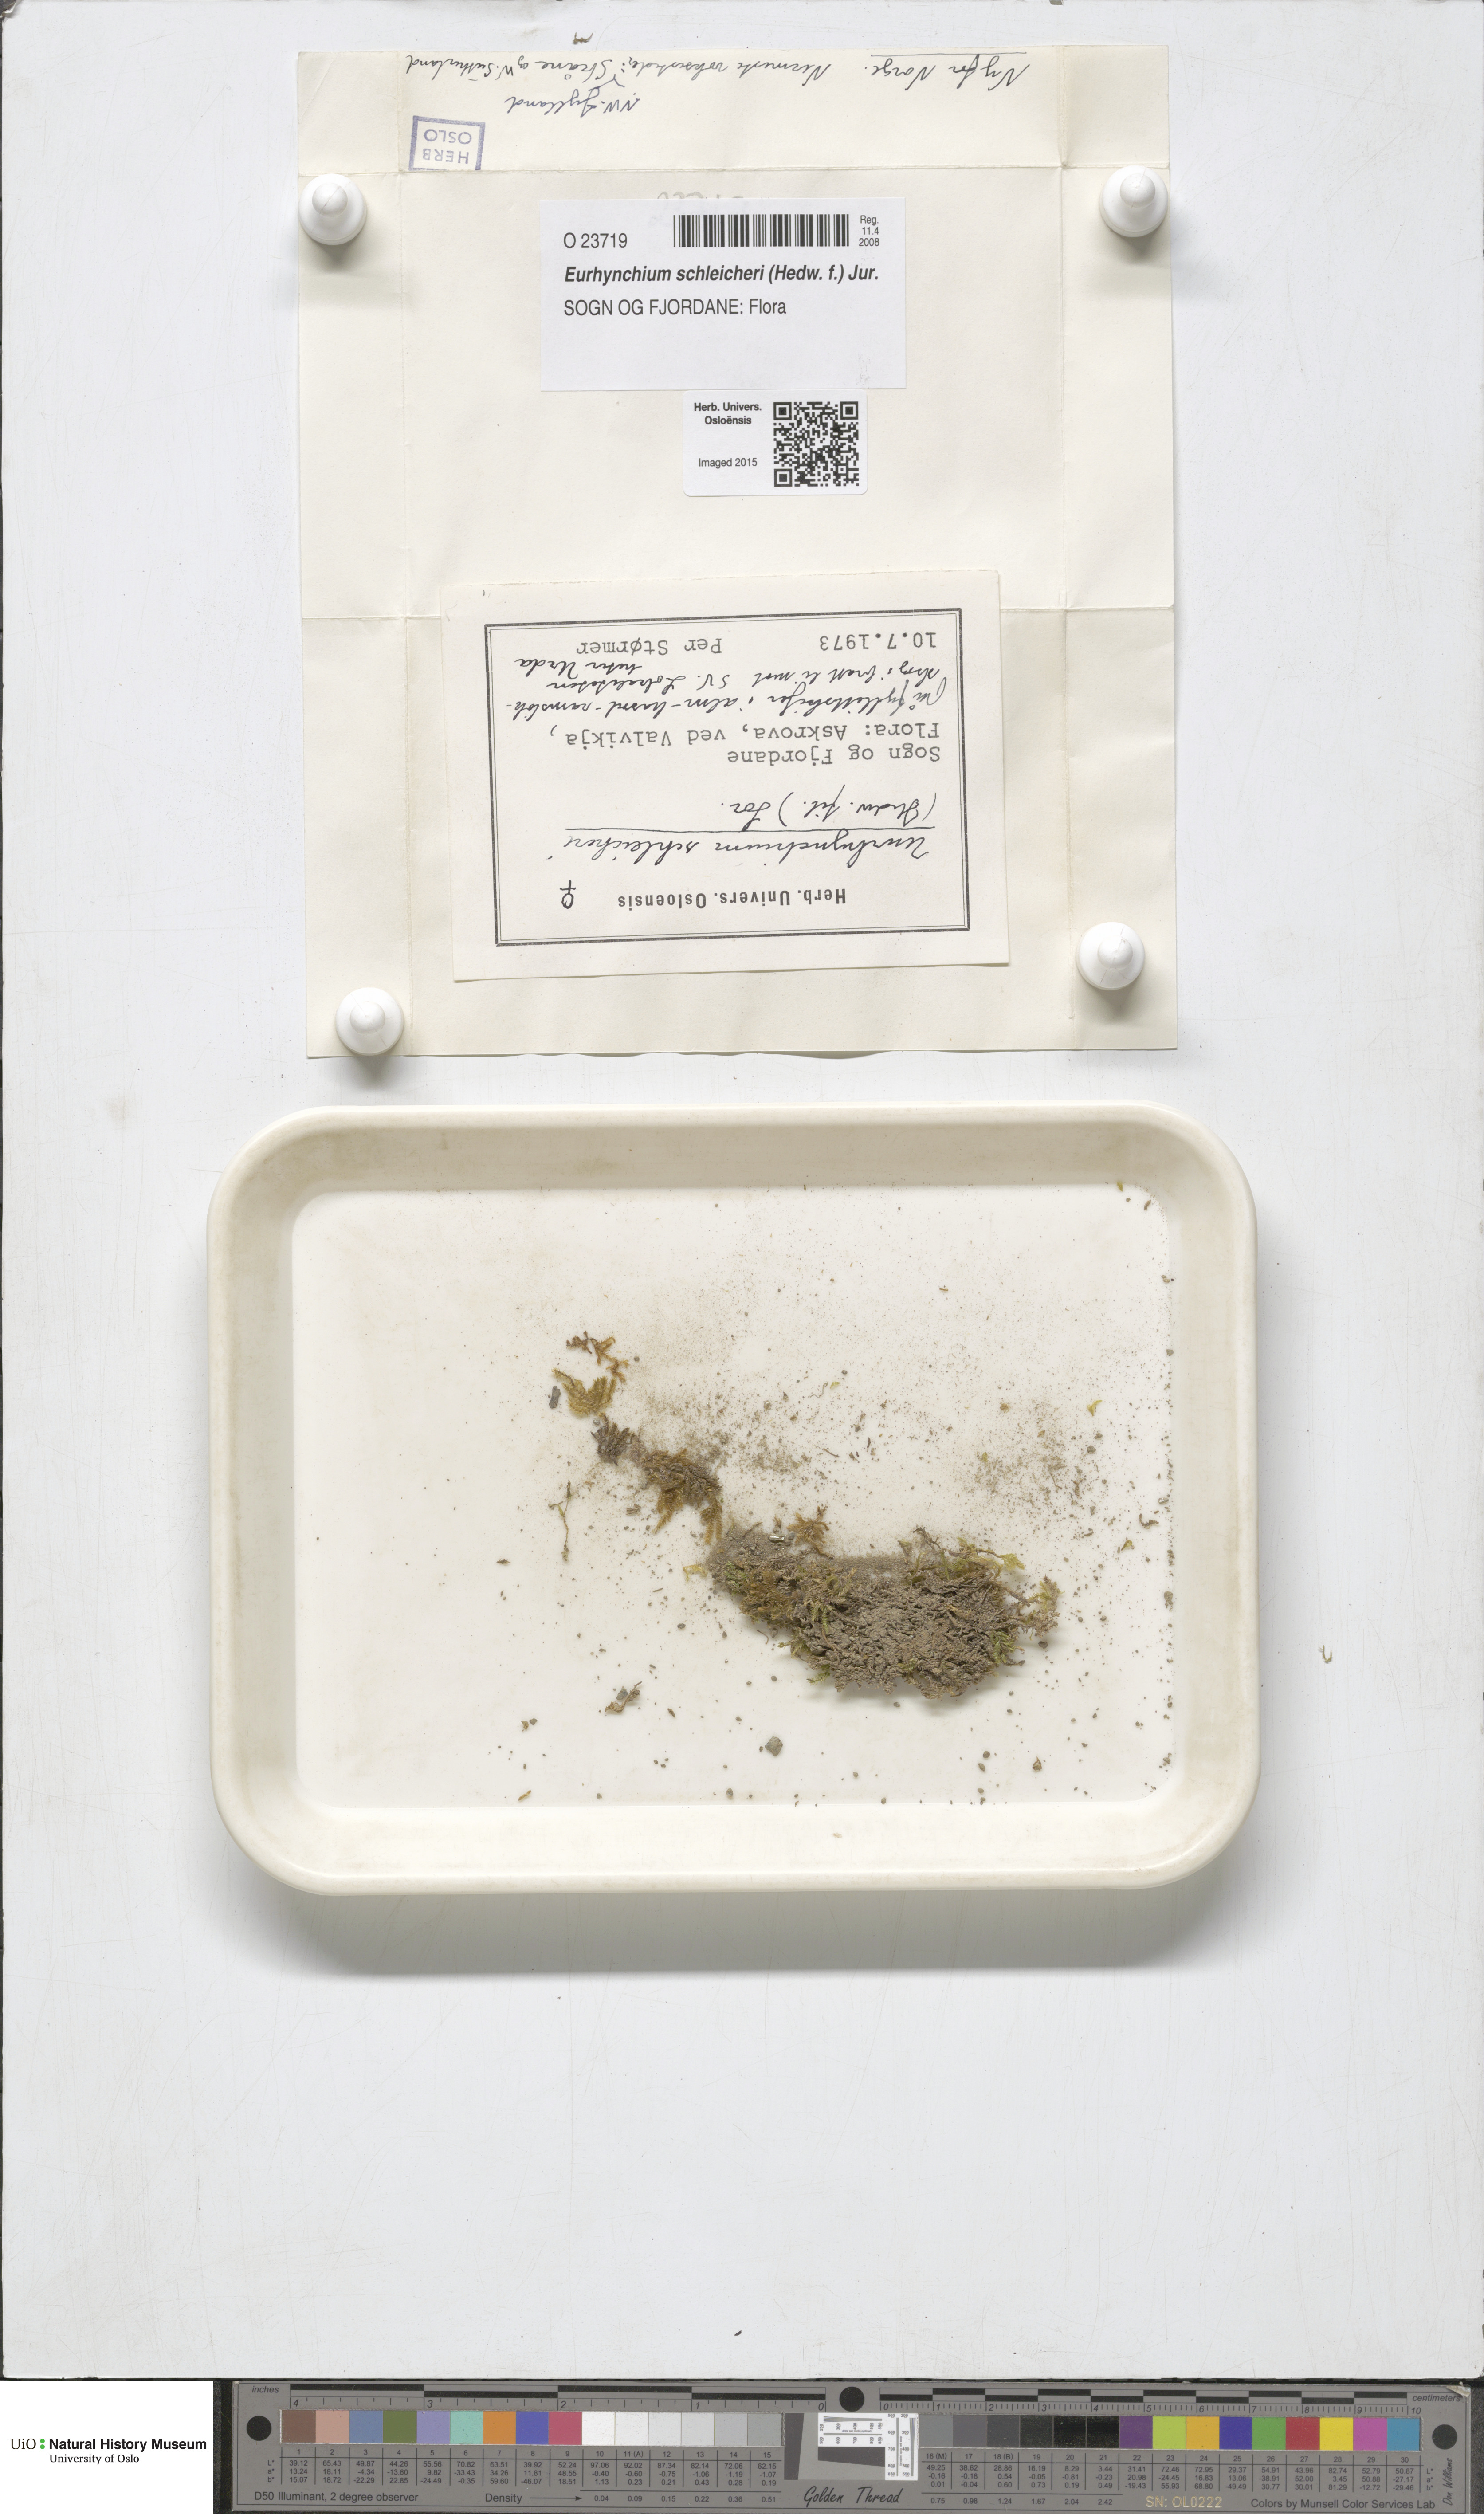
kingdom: Plantae
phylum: Bryophyta
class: Bryopsida
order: Hypnales
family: Brachytheciaceae
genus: Oxyrrhynchium
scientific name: Oxyrrhynchium schleicheri
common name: Twist-tip feather-moss
